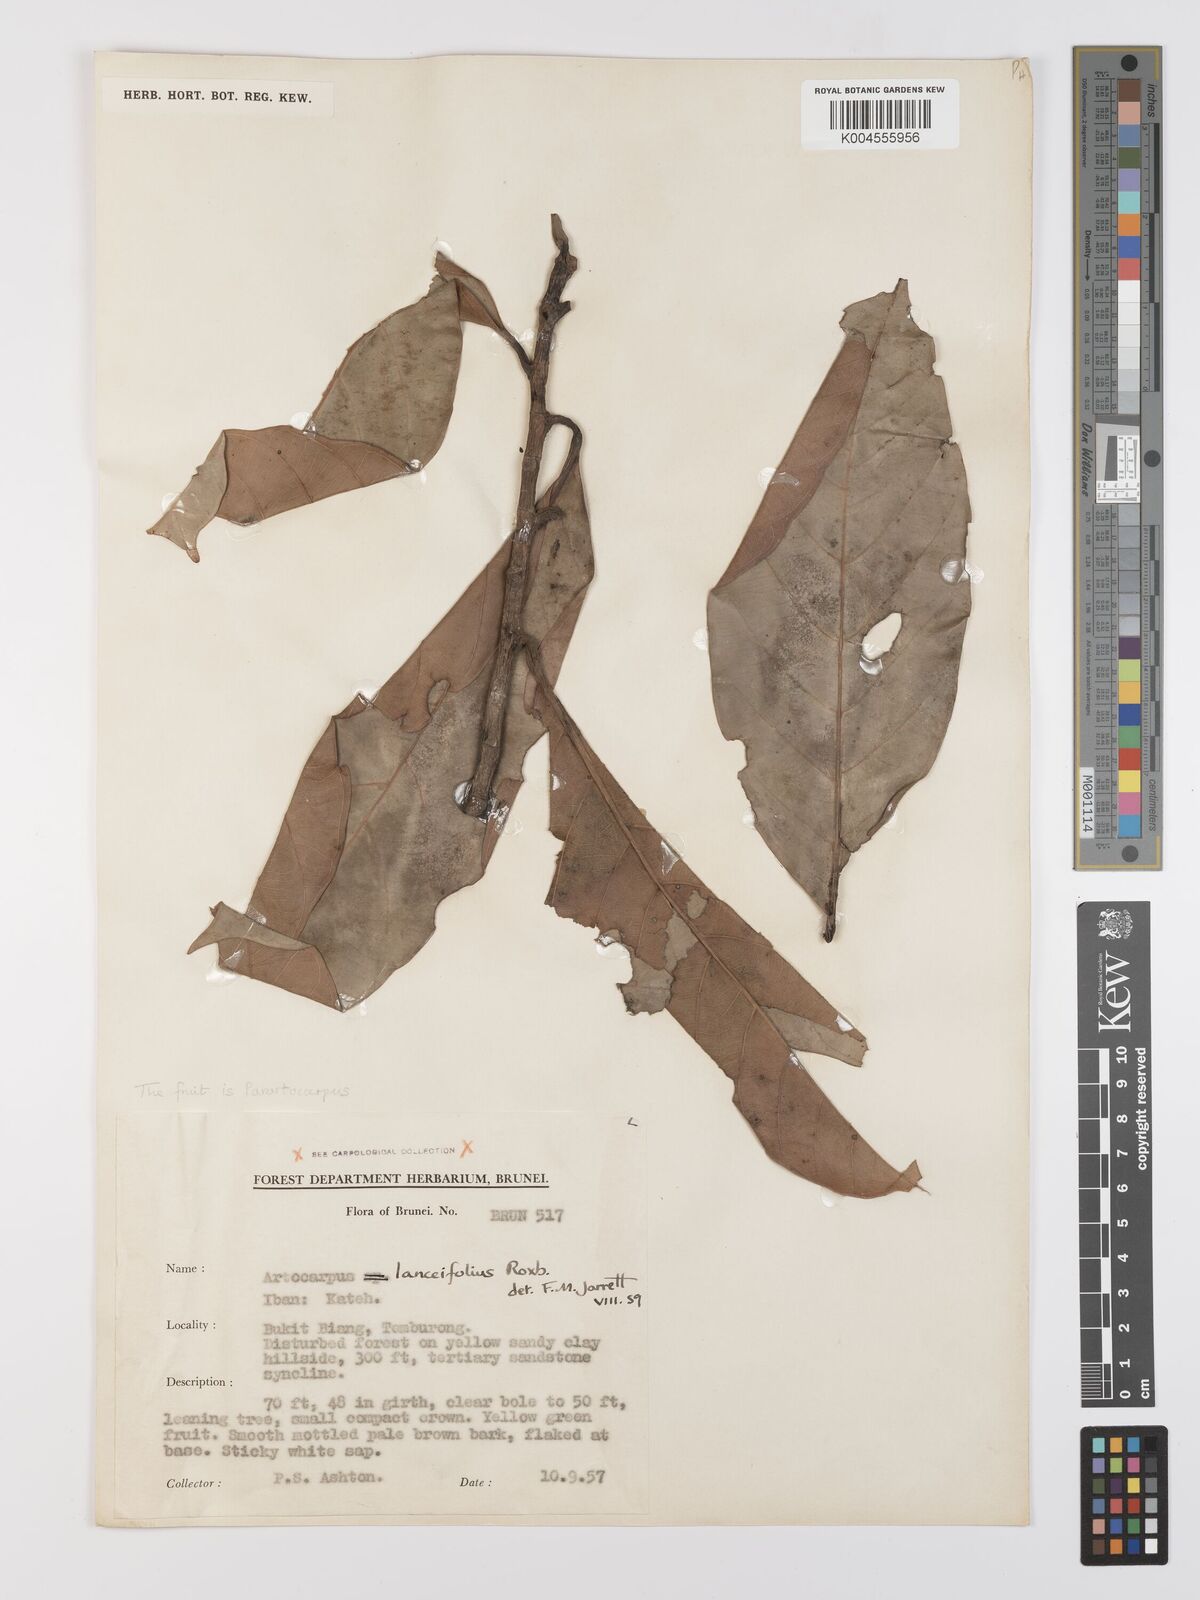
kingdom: Plantae
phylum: Tracheophyta
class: Magnoliopsida
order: Rosales
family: Moraceae
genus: Artocarpus
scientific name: Artocarpus lanceifolius
